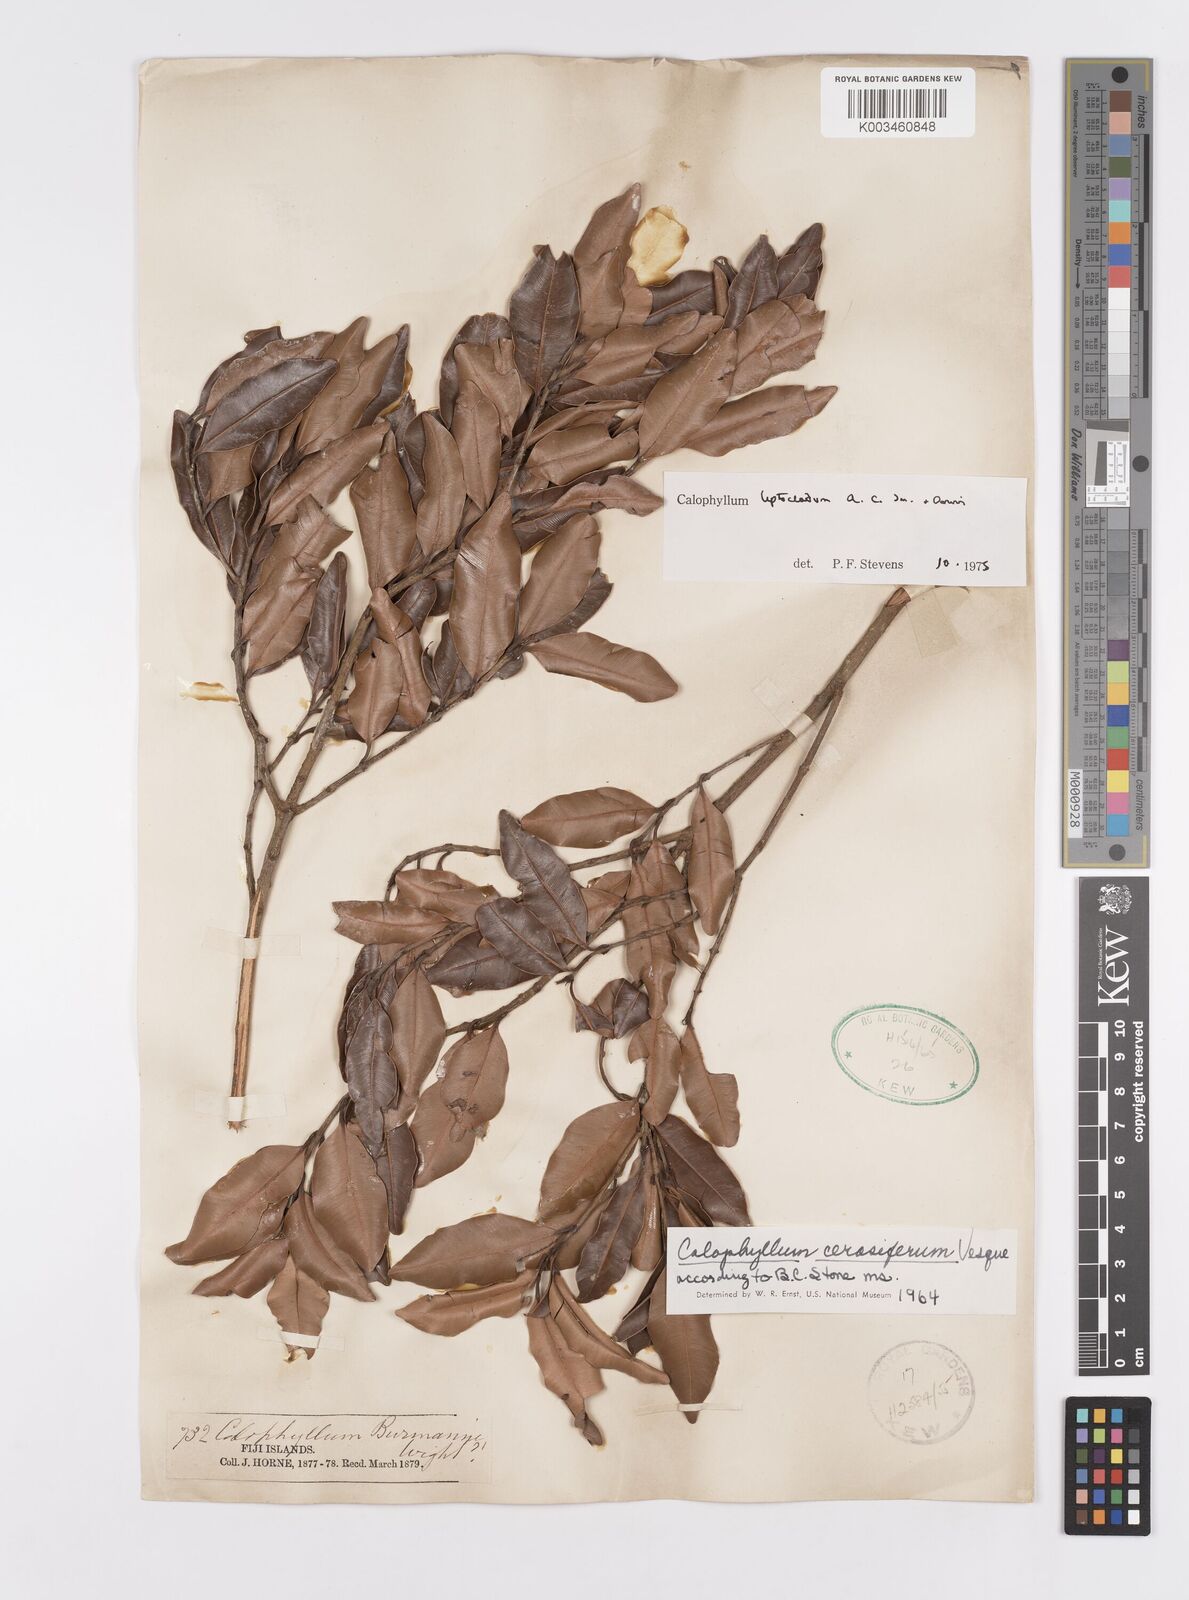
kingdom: Plantae
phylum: Tracheophyta
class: Magnoliopsida
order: Malpighiales
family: Calophyllaceae
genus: Calophyllum
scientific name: Calophyllum leptocladum
